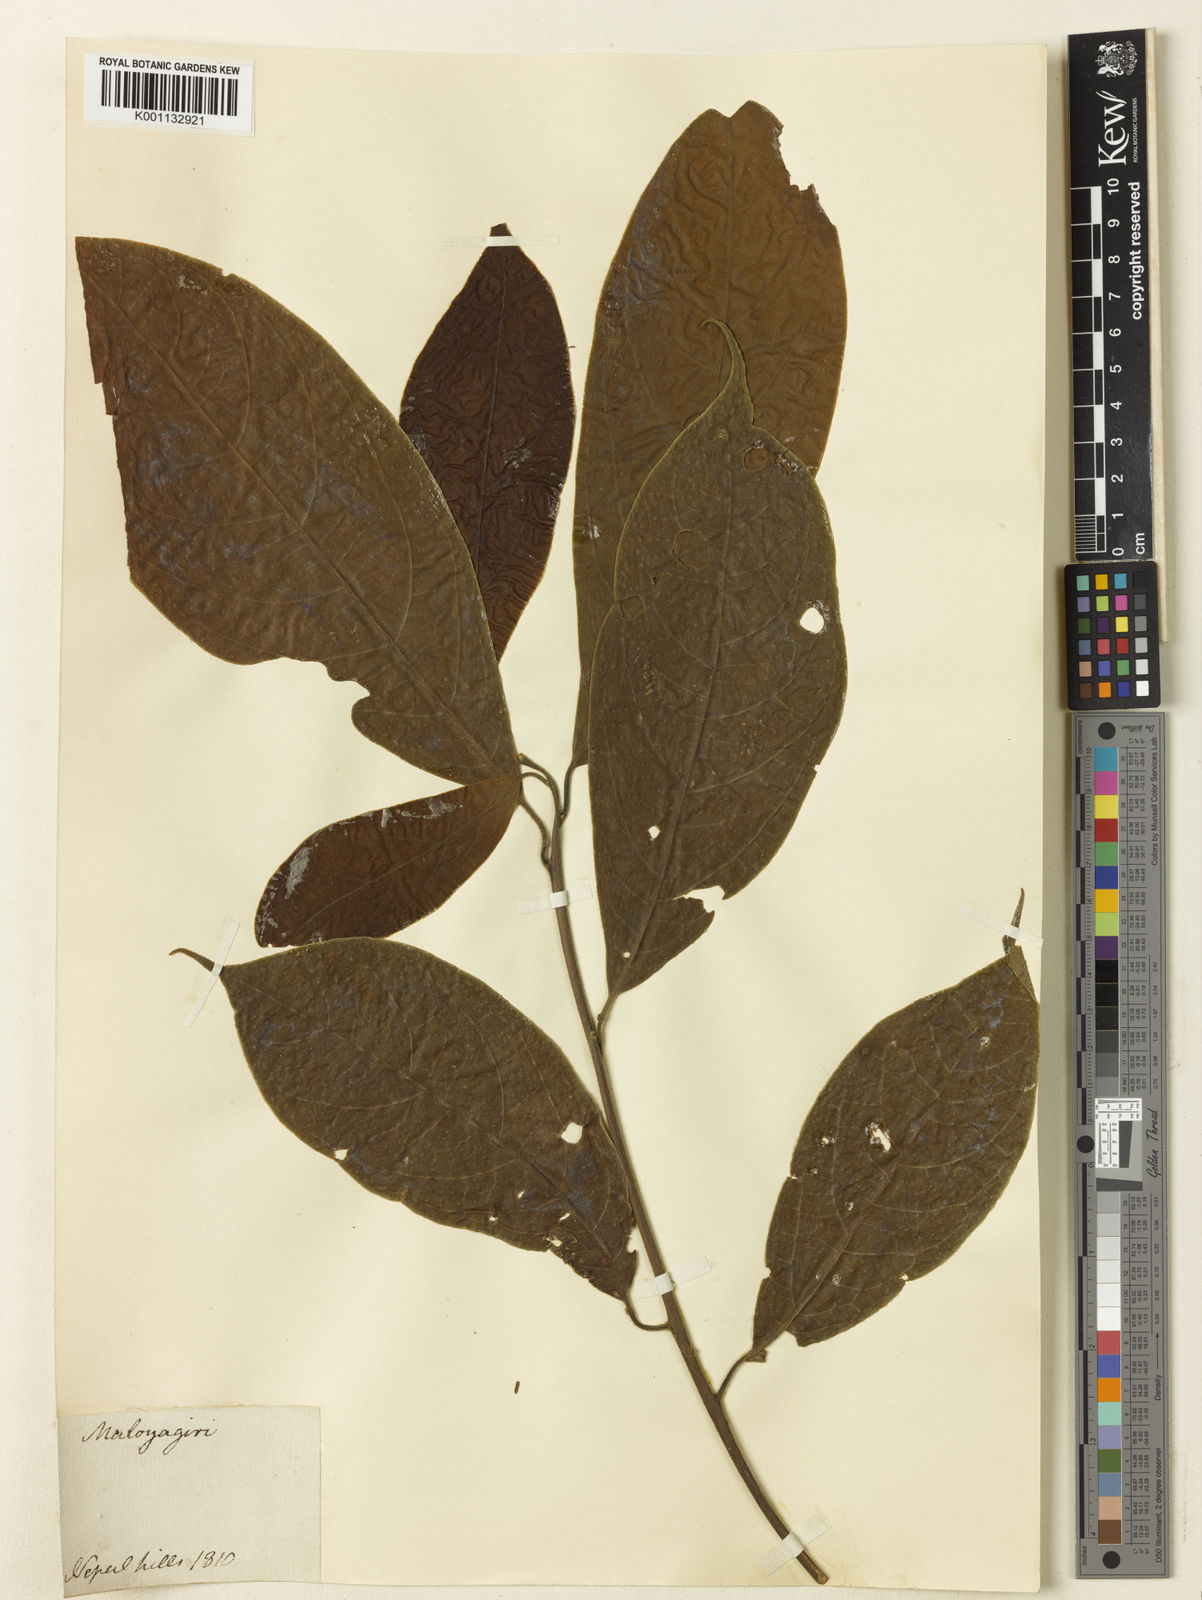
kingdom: Plantae
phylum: Tracheophyta
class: Magnoliopsida
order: Laurales
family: Lauraceae
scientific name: Lauraceae
